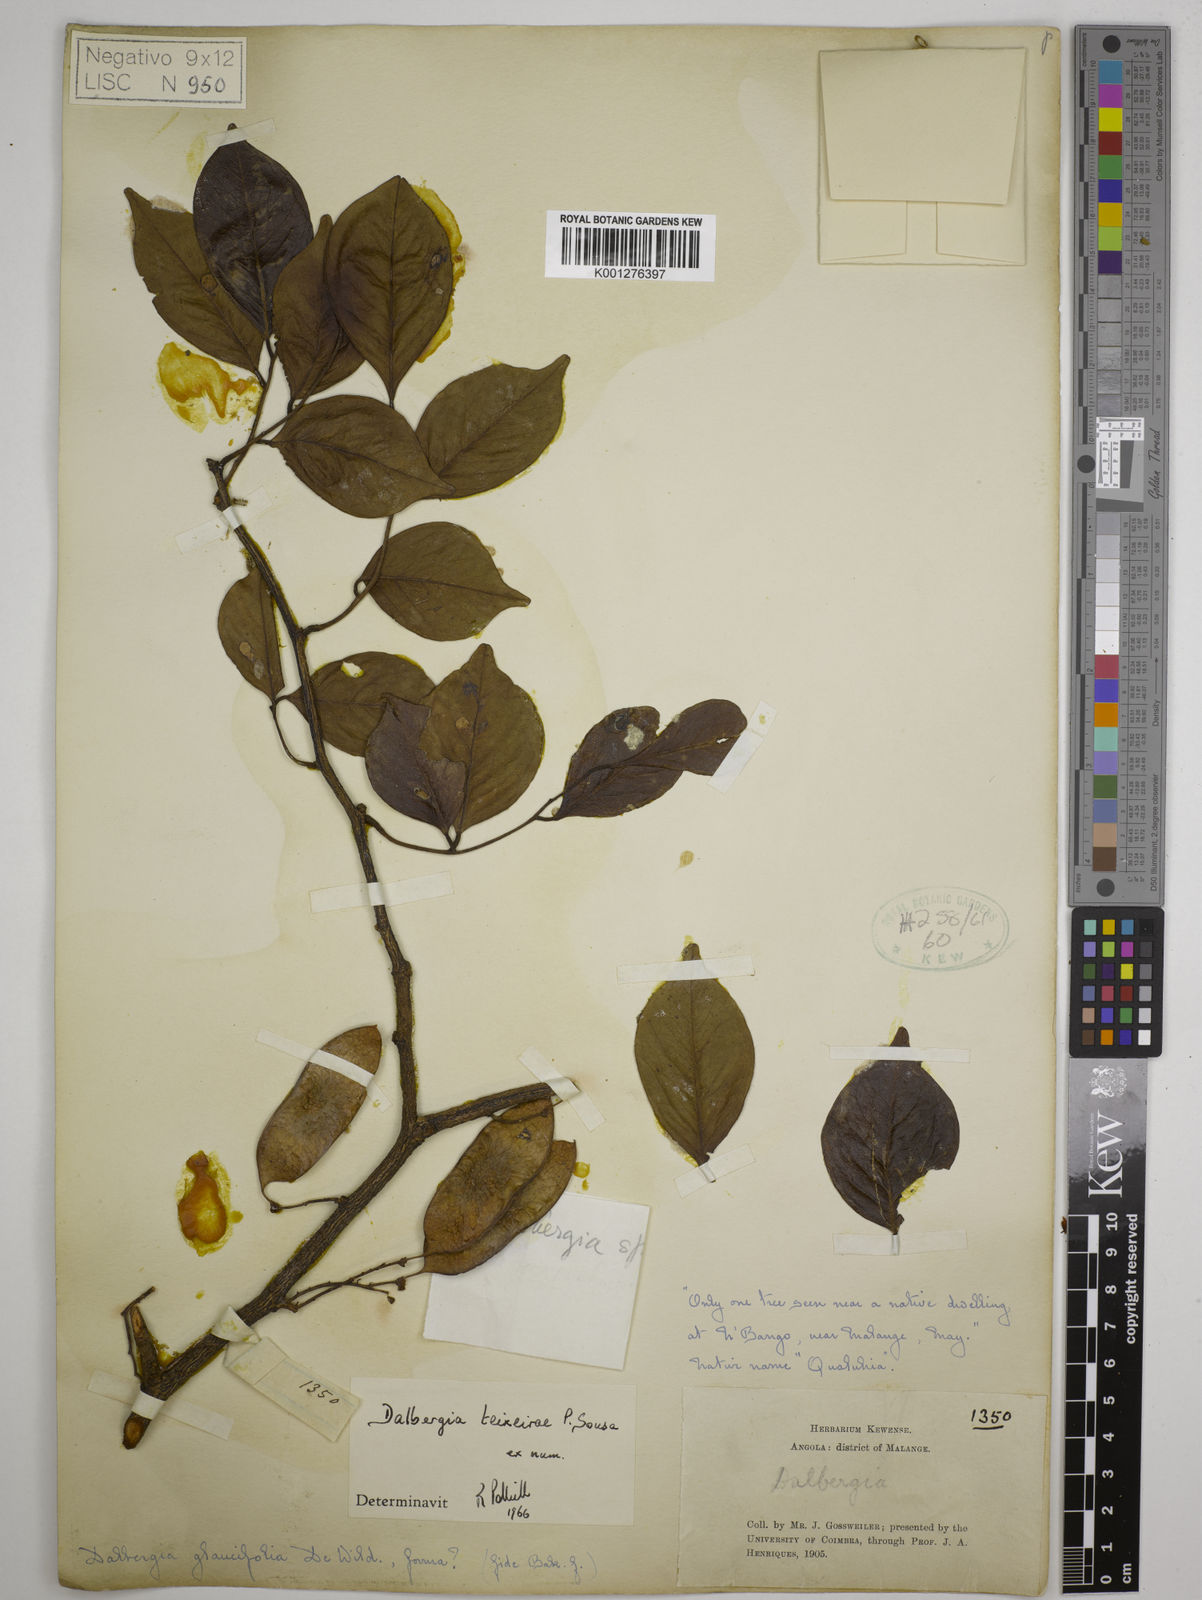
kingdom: Plantae
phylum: Tracheophyta
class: Magnoliopsida
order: Fabales
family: Fabaceae
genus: Dalbergia
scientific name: Dalbergia teixeirae
